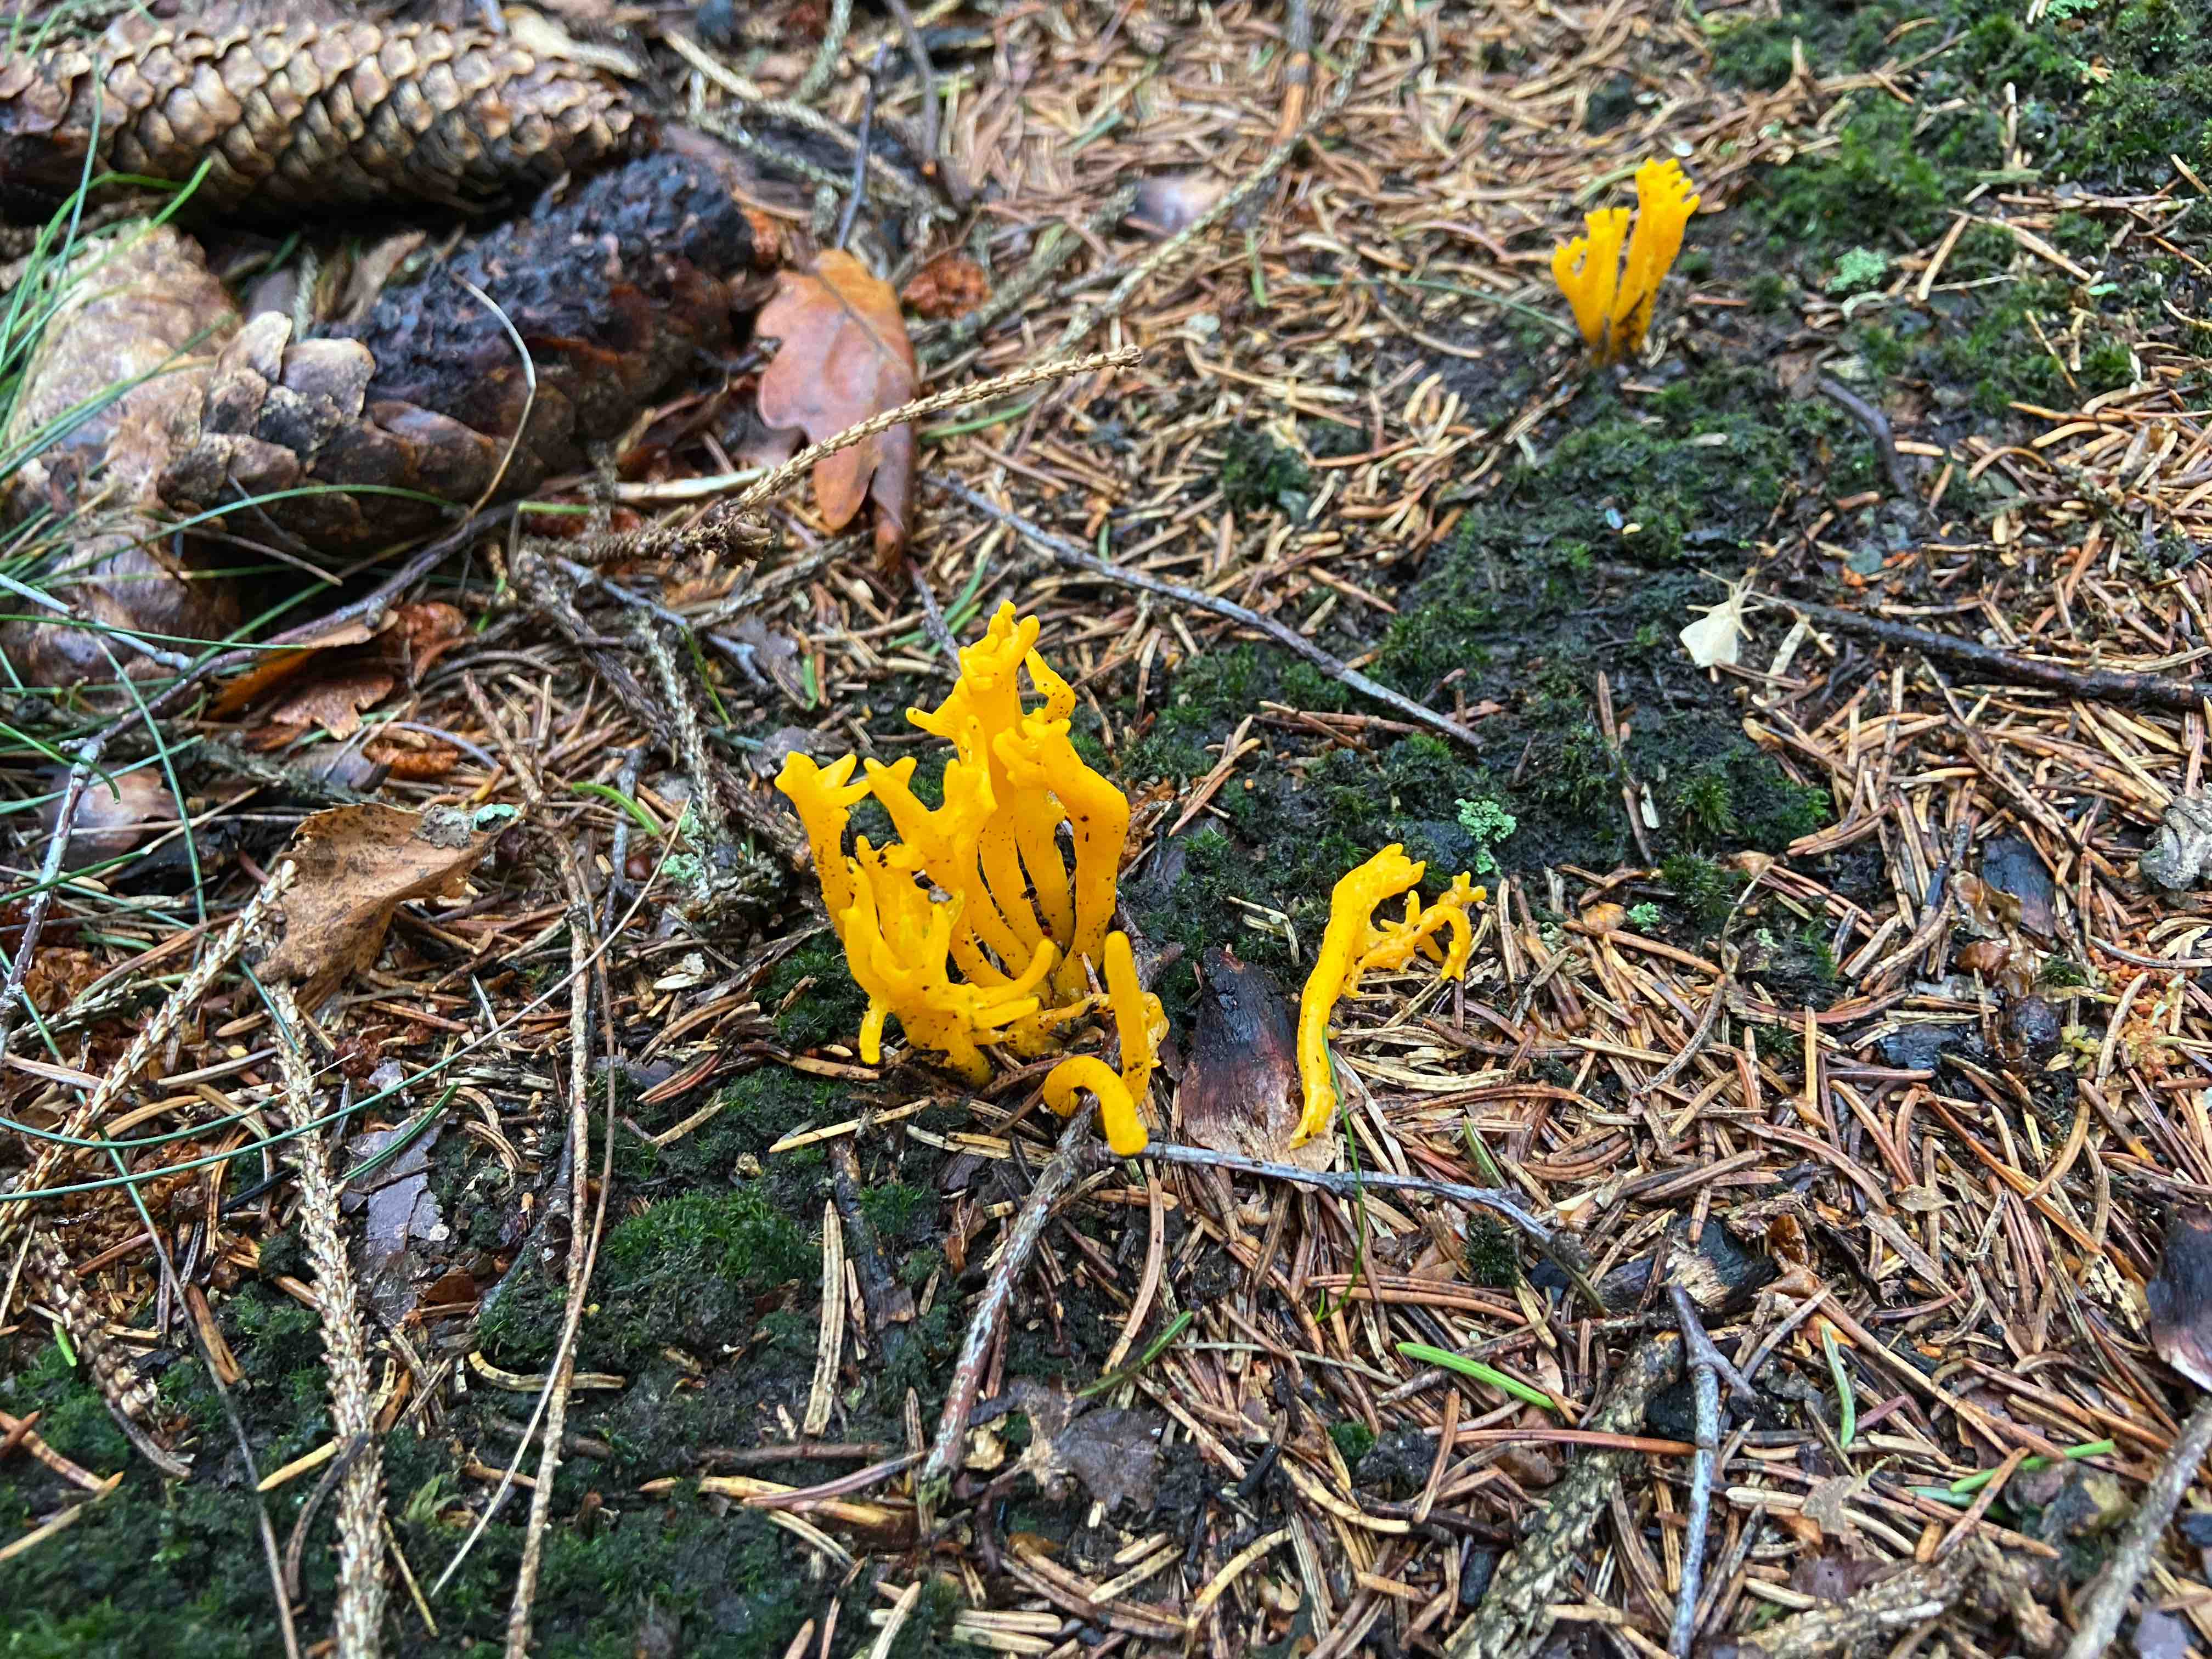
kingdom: Fungi
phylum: Basidiomycota
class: Dacrymycetes
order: Dacrymycetales
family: Dacrymycetaceae
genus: Calocera
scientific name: Calocera viscosa
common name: almindelig guldgaffel
